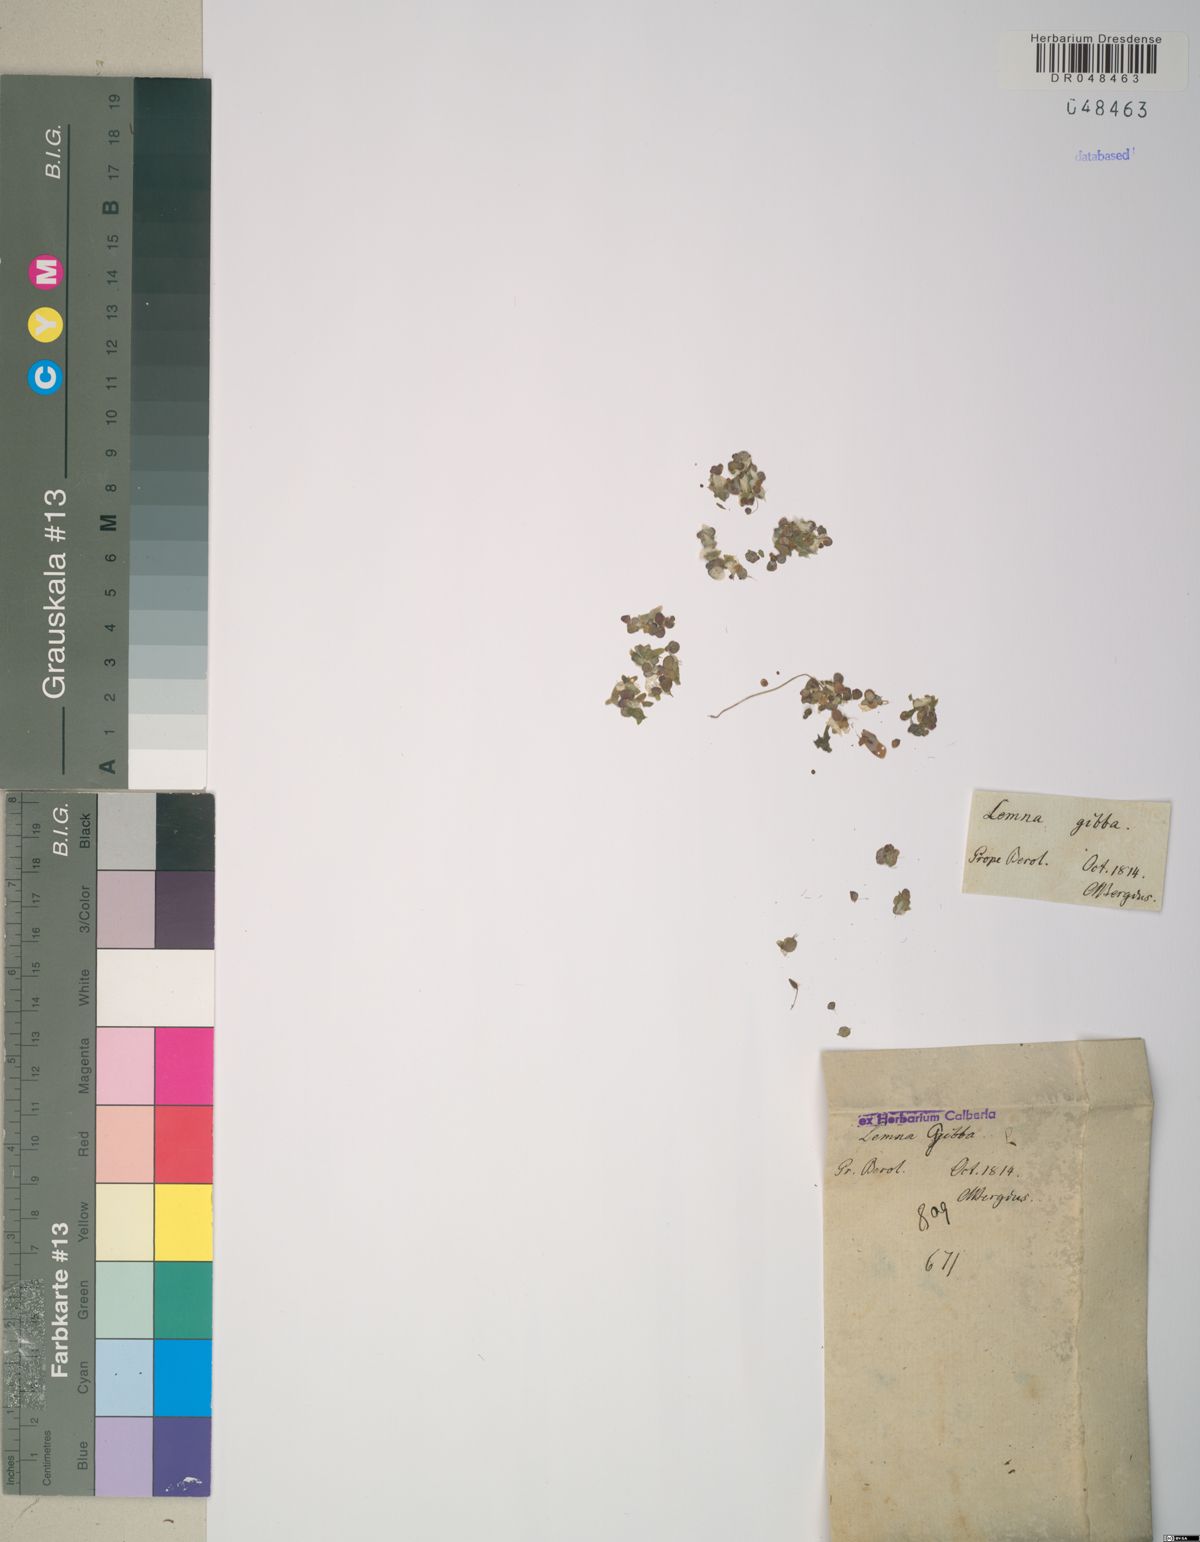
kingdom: Plantae
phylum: Tracheophyta
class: Liliopsida
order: Alismatales
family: Araceae
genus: Lemna
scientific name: Lemna gibba
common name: Fat duckweed
